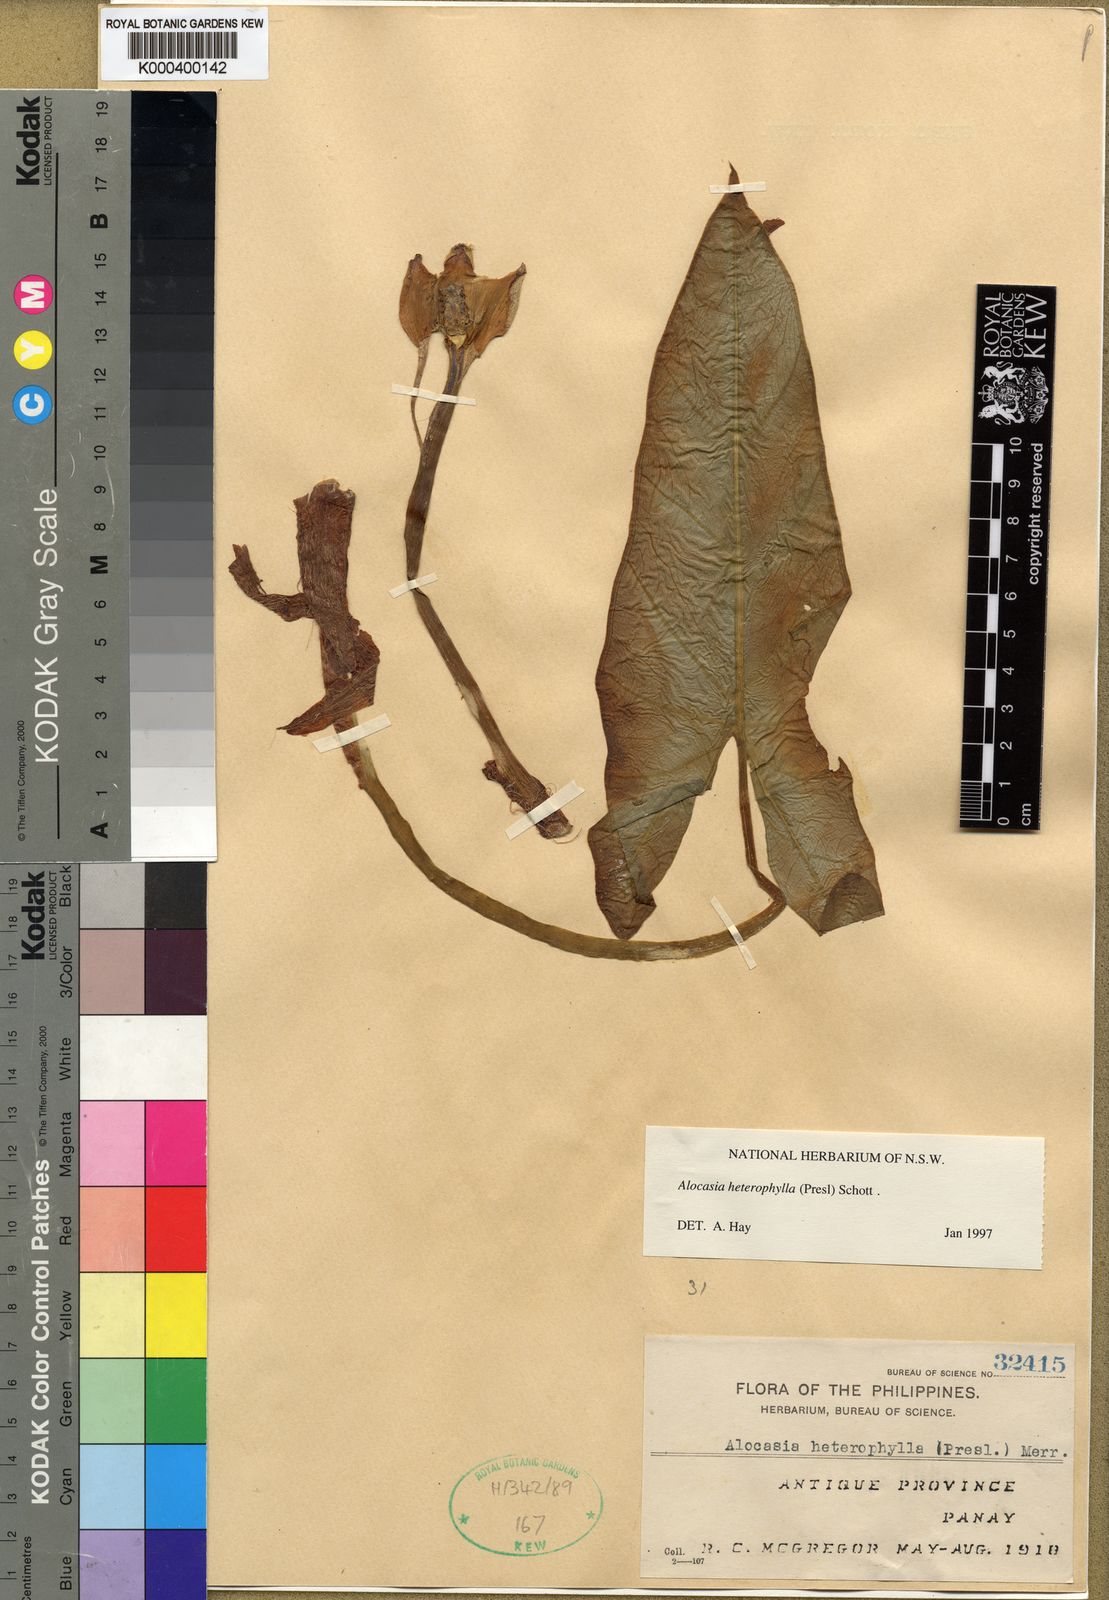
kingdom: Plantae
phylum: Tracheophyta
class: Liliopsida
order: Alismatales
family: Araceae
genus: Alocasia
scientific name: Alocasia heterophylla
